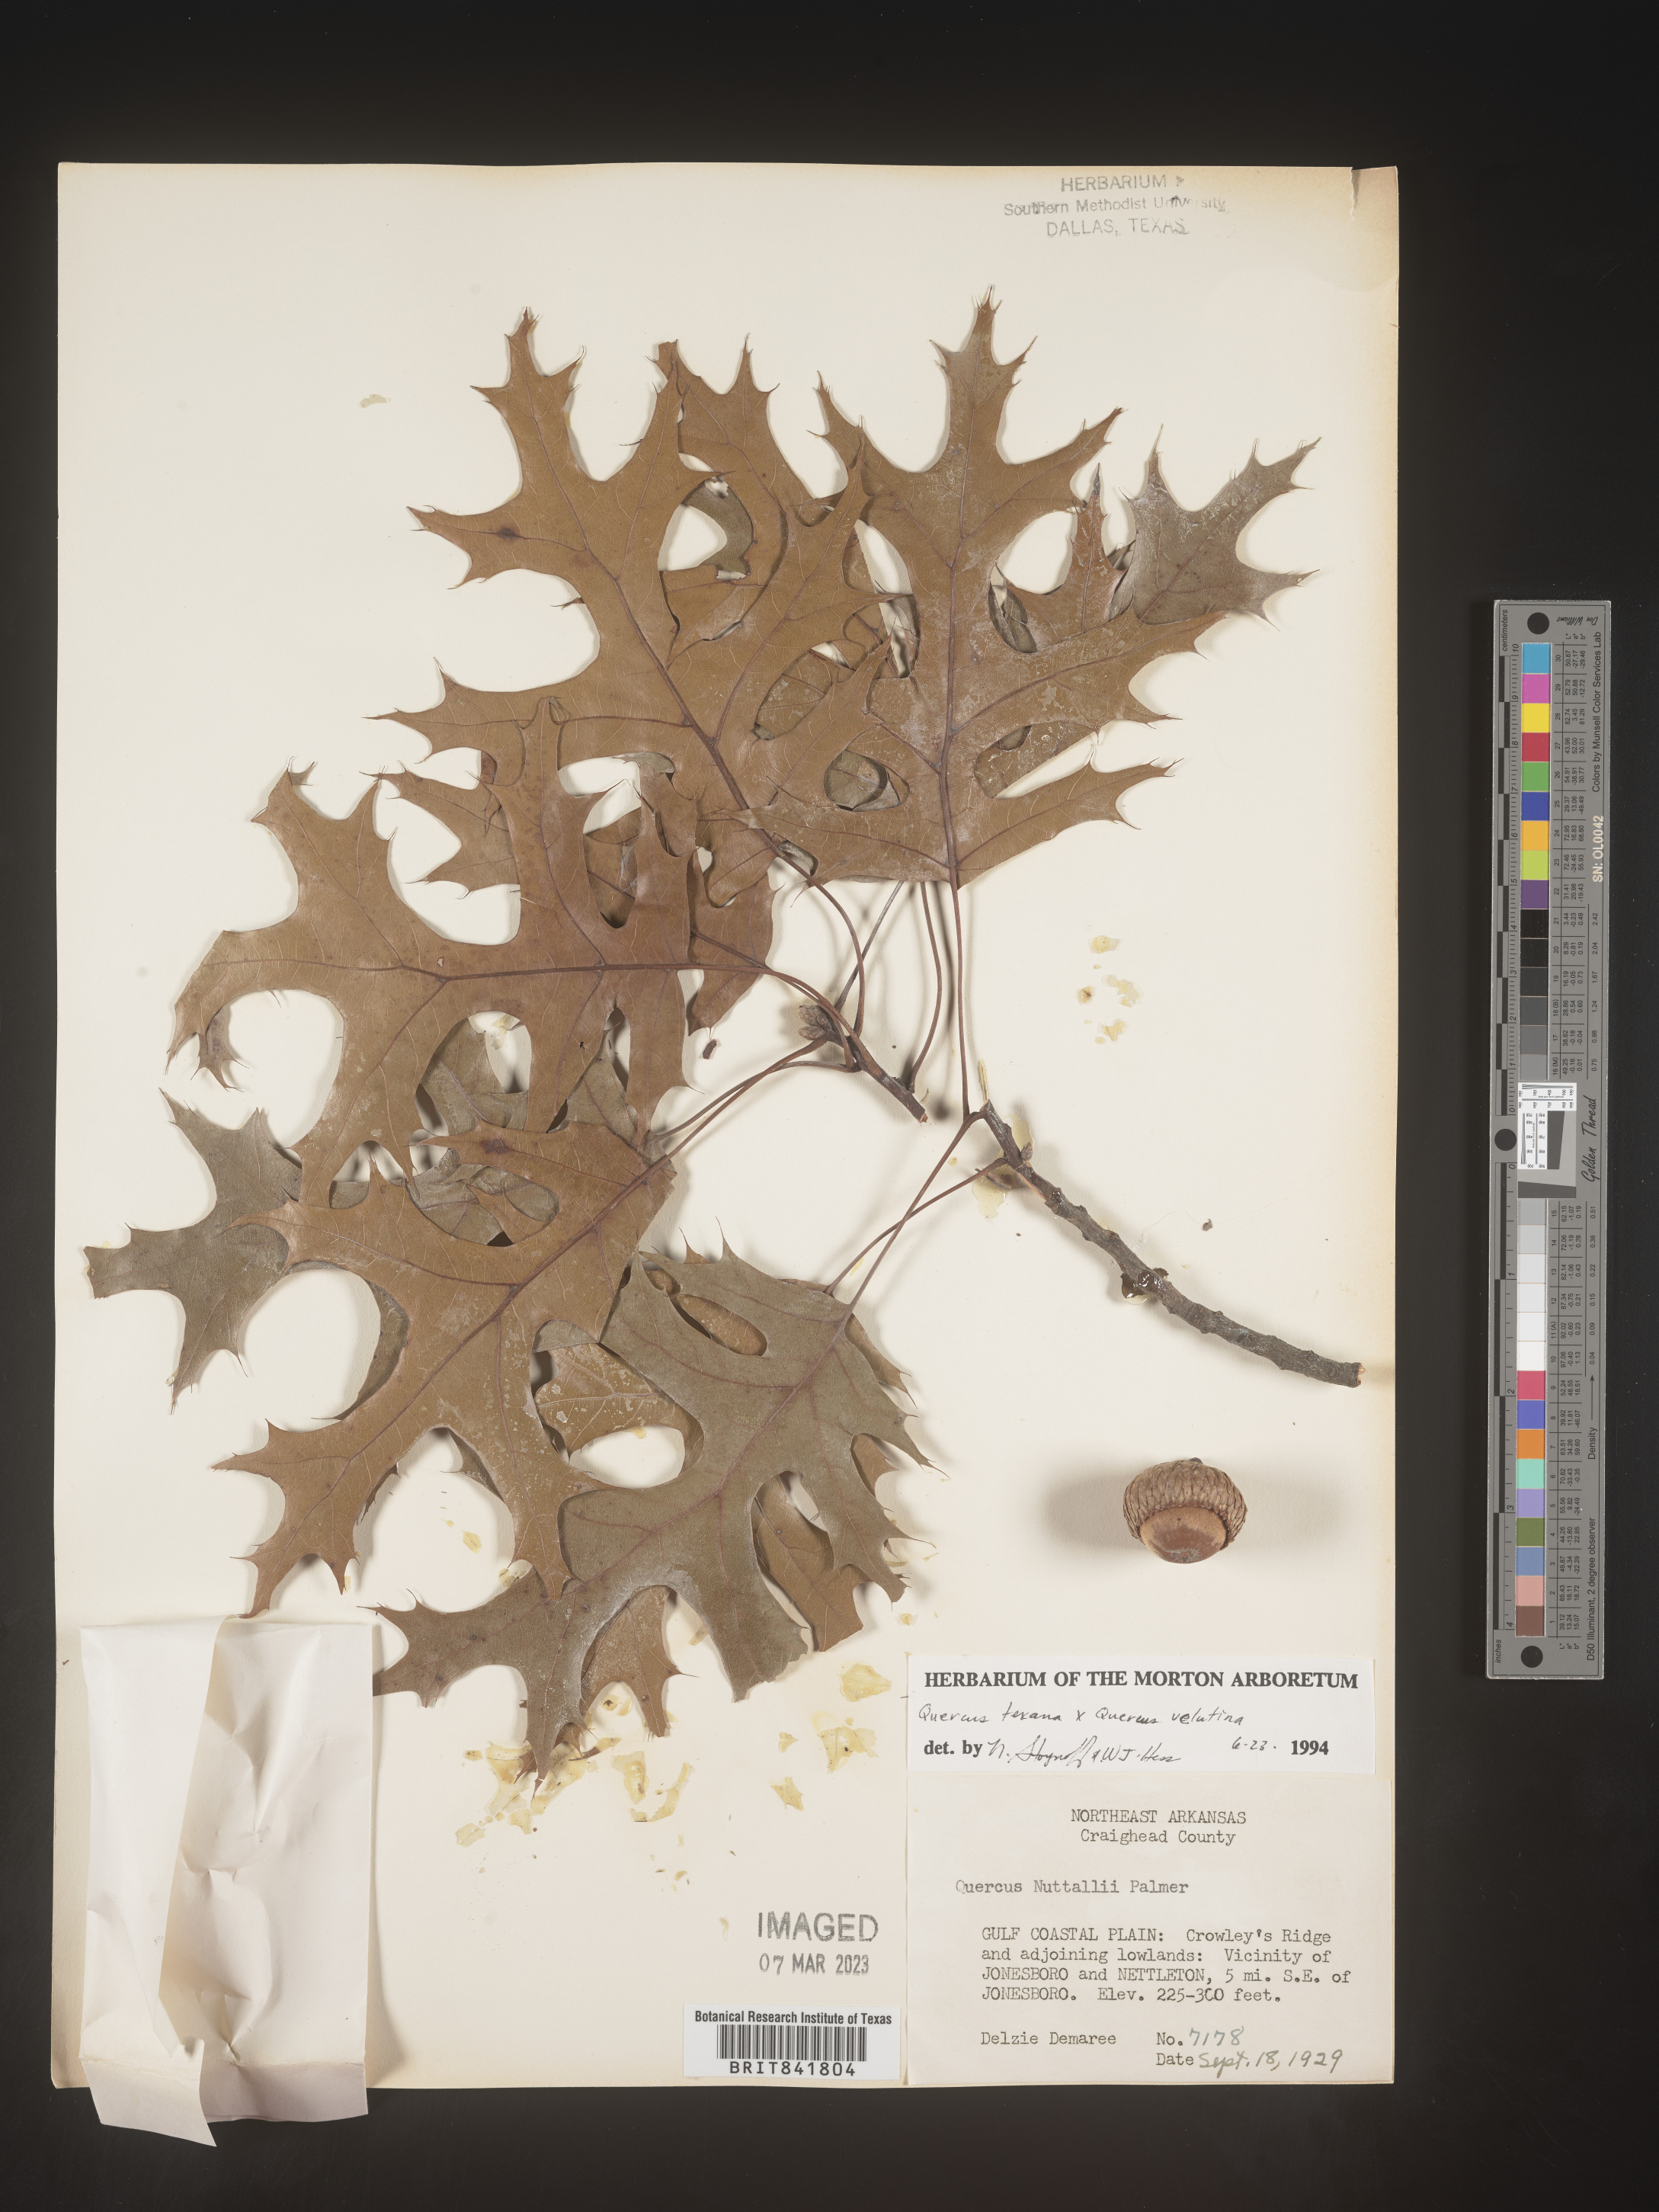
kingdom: Plantae
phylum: Tracheophyta
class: Magnoliopsida
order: Fagales
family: Fagaceae
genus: Quercus
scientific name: Quercus texana
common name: Nuttall oak
